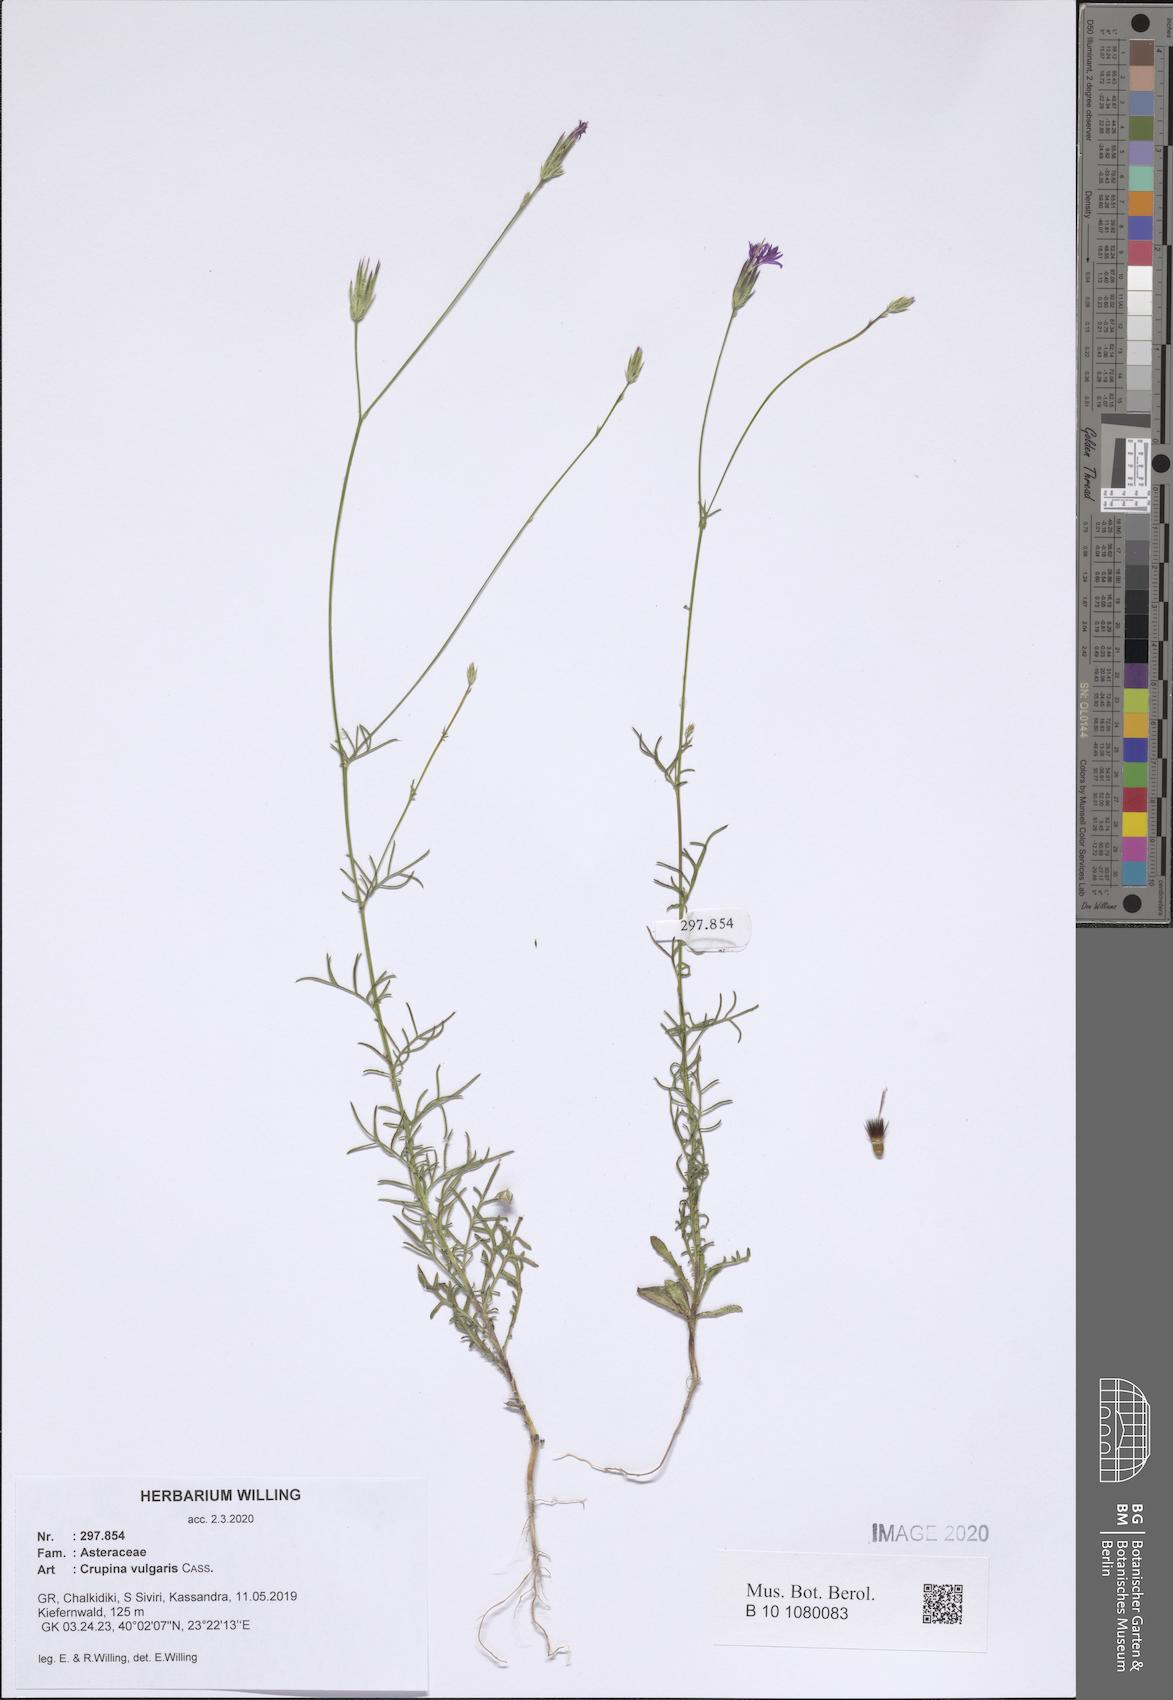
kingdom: Plantae
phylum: Tracheophyta
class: Magnoliopsida
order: Asterales
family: Asteraceae
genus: Crupina
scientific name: Crupina vulgaris
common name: Common crupina
